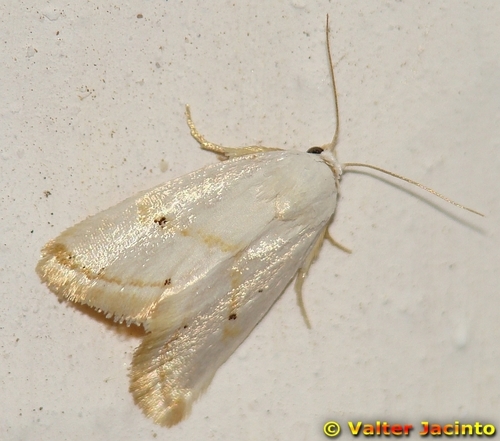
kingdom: Animalia
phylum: Arthropoda
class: Insecta
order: Lepidoptera
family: Noctuidae
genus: Eublemma
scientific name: Eublemma pura
